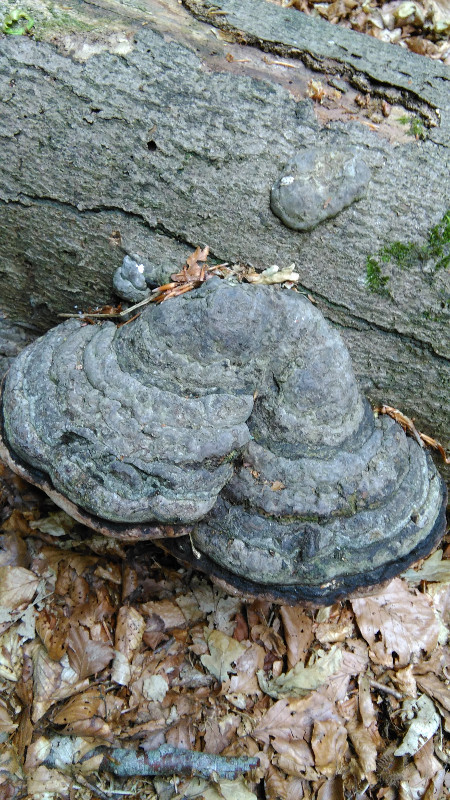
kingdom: Fungi
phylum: Basidiomycota
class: Agaricomycetes
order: Polyporales
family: Polyporaceae
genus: Fomes
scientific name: Fomes fomentarius
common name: tøndersvamp
